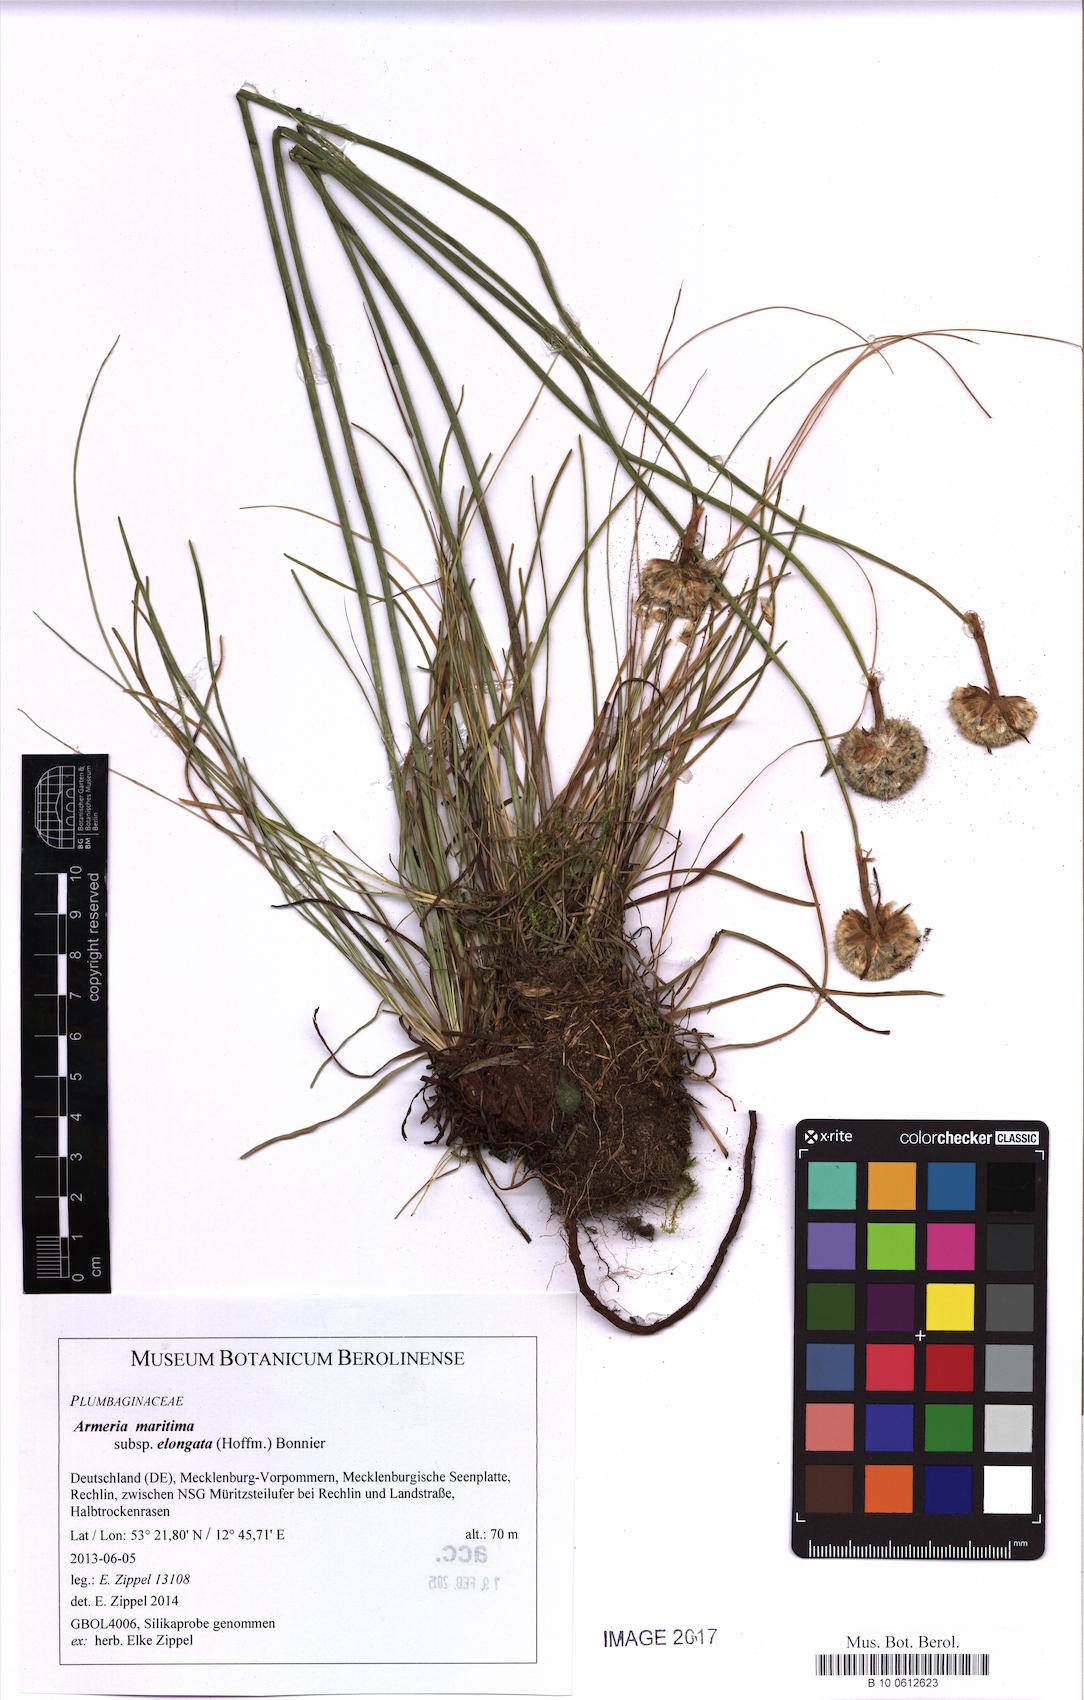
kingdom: Plantae
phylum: Tracheophyta
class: Magnoliopsida
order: Caryophyllales
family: Plumbaginaceae
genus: Armeria
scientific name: Armeria maritima
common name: Thrift
